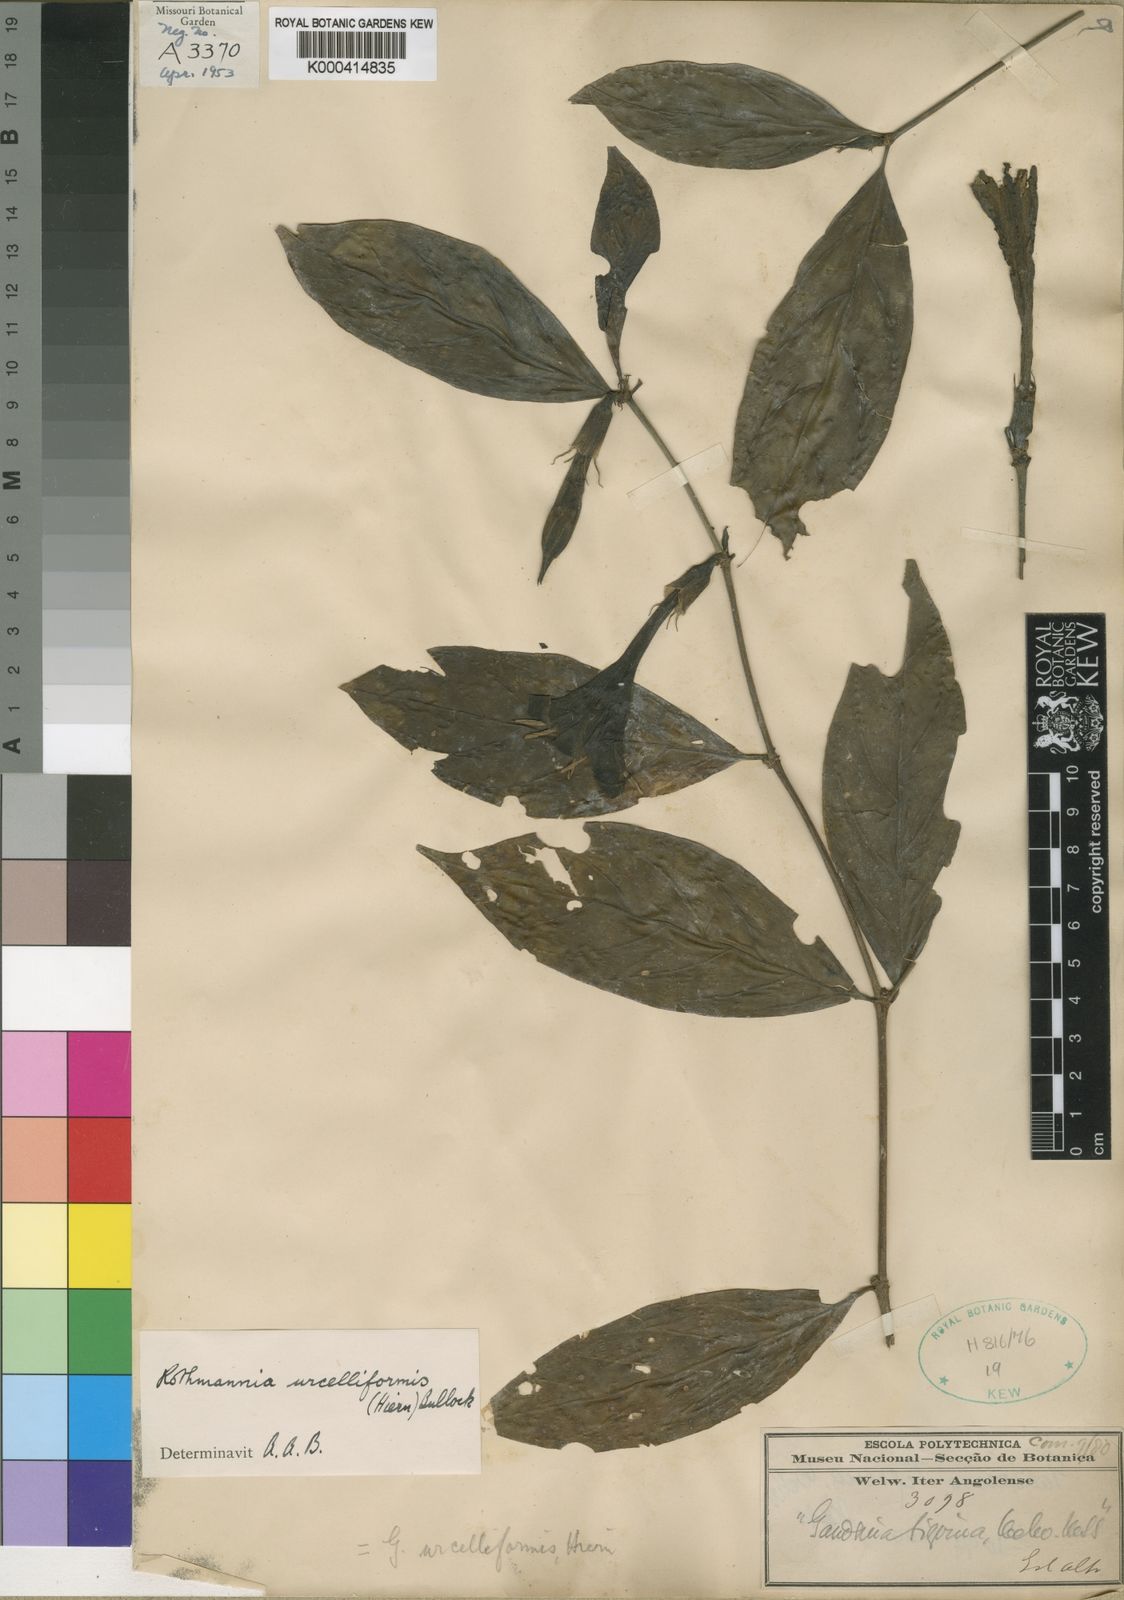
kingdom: Plantae
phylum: Tracheophyta
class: Magnoliopsida
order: Gentianales
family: Rubiaceae
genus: Rothmannia
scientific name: Rothmannia urcelliformis
